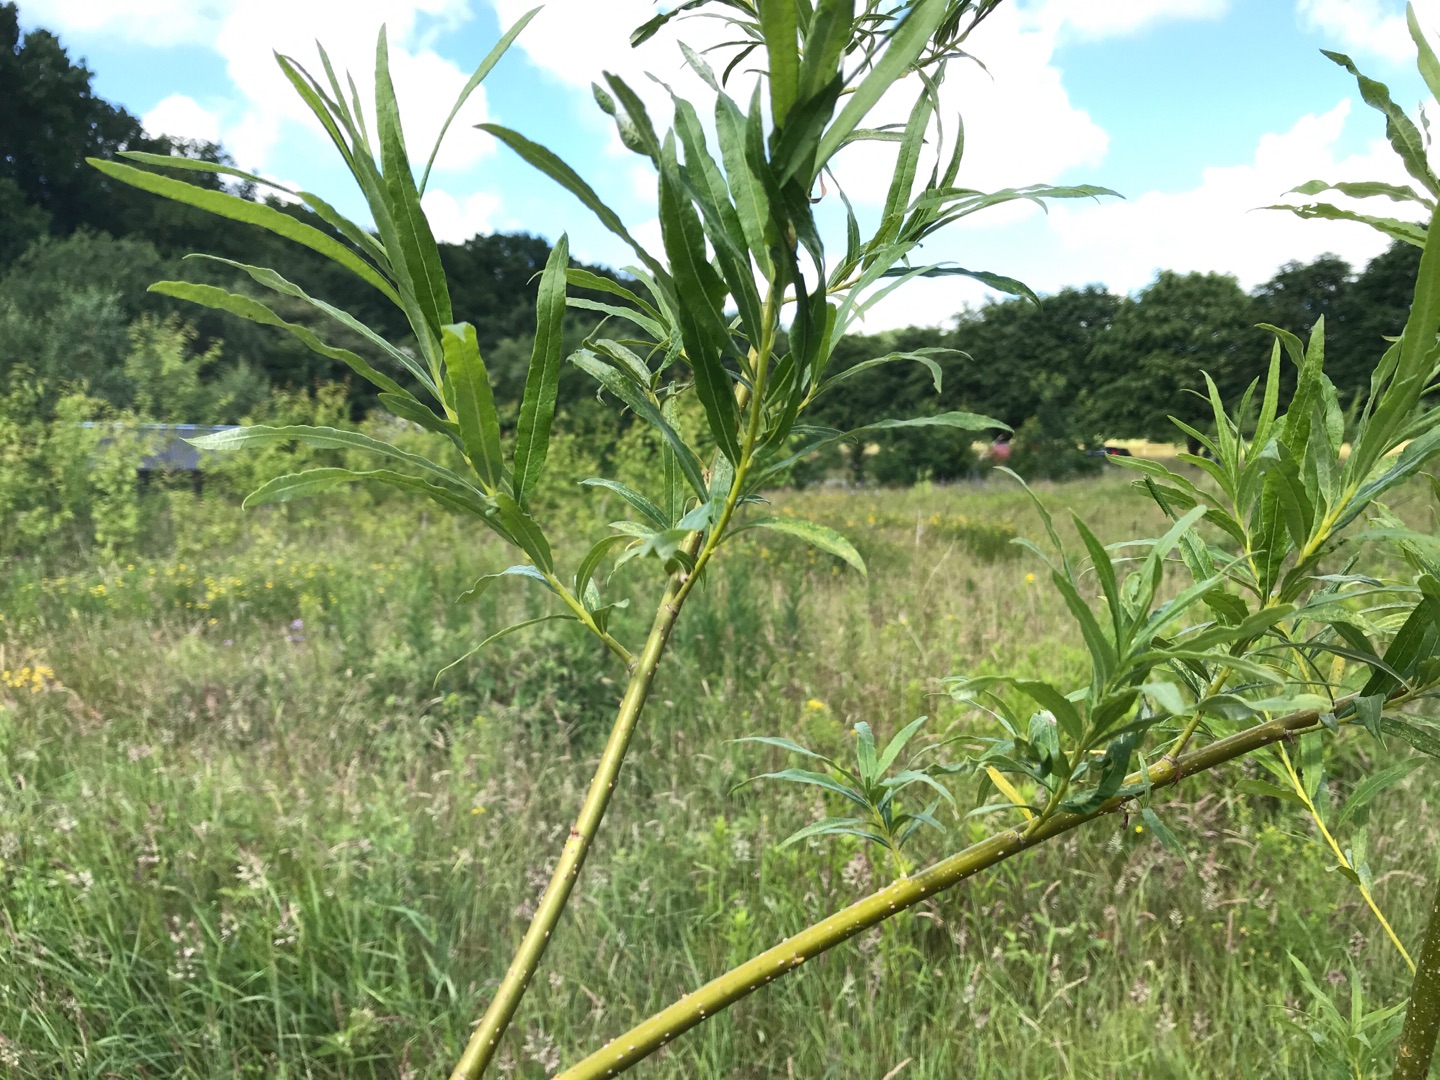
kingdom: Plantae
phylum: Tracheophyta
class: Magnoliopsida
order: Malpighiales
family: Salicaceae
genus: Salix
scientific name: Salix viminalis
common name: Bånd-pil
